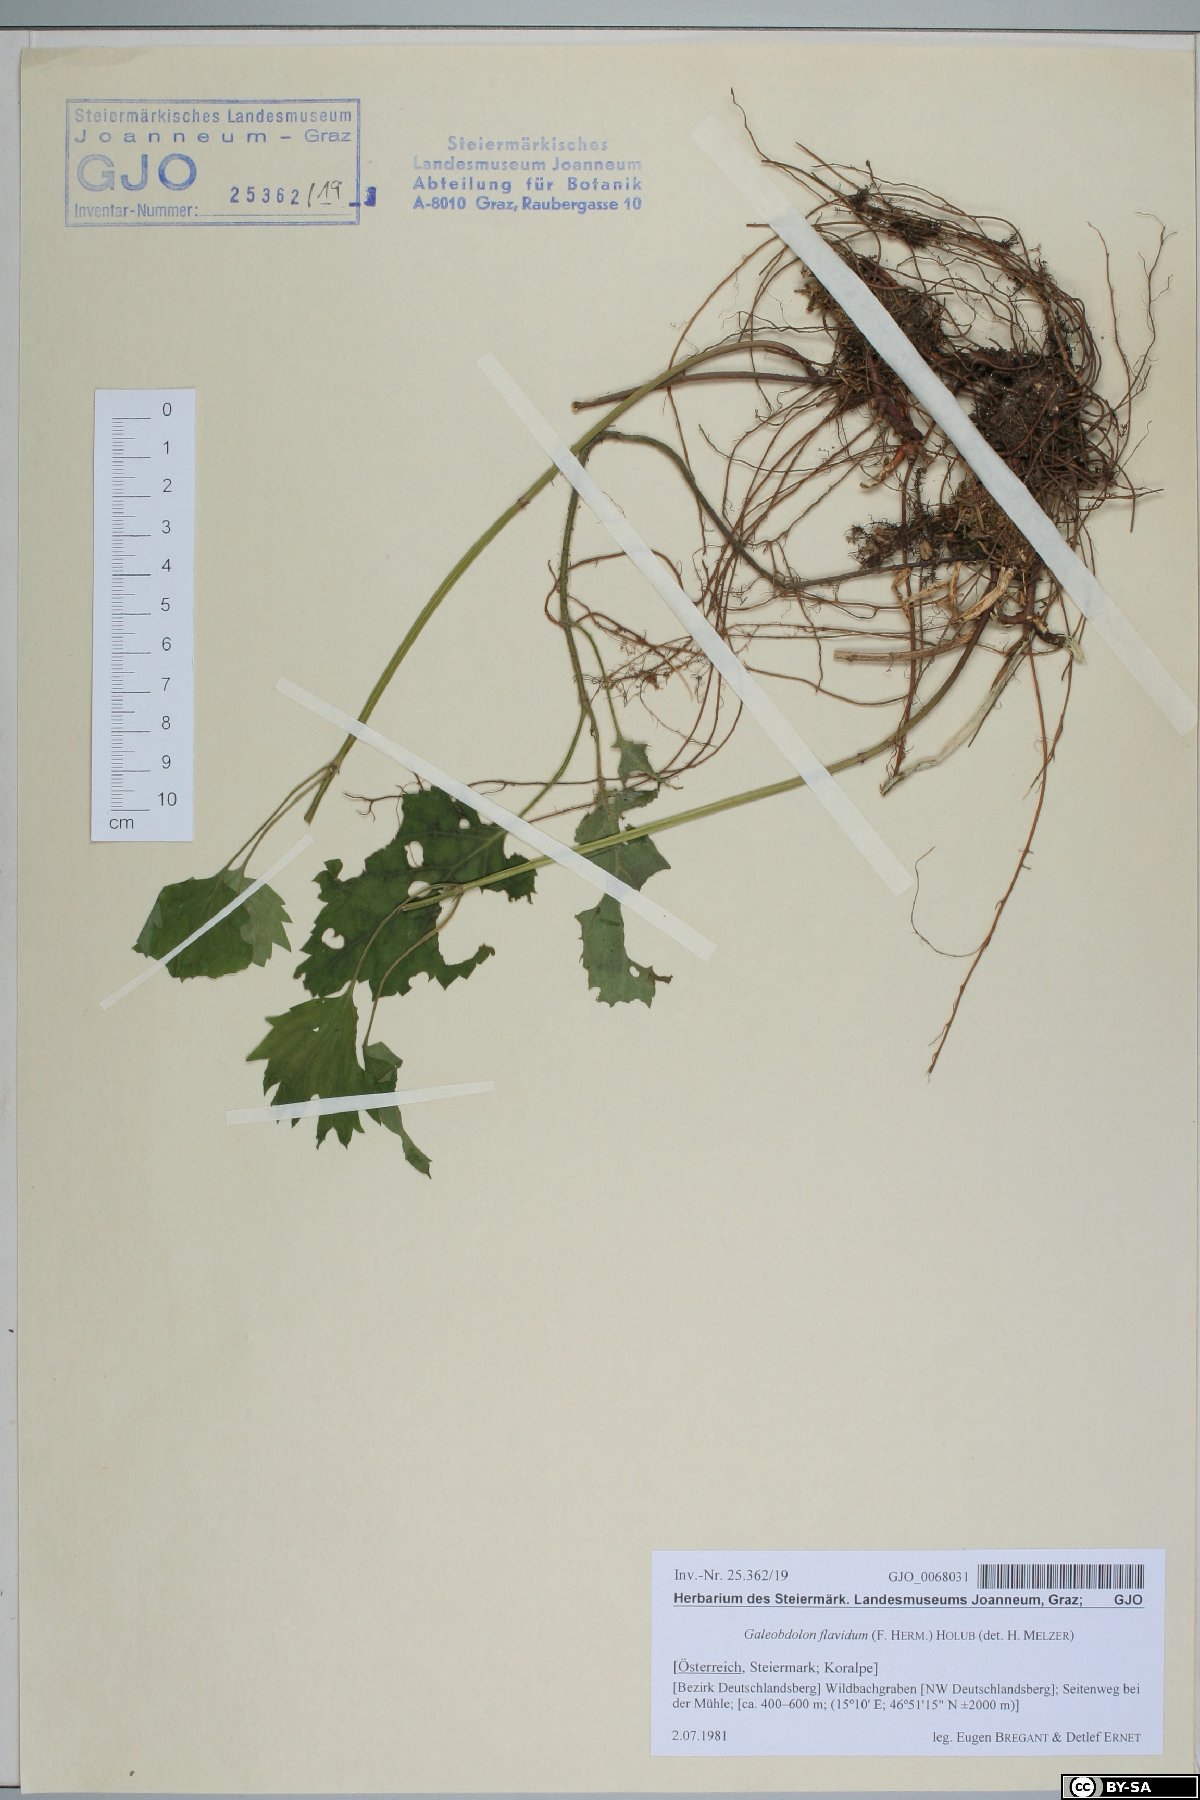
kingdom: Plantae
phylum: Tracheophyta
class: Magnoliopsida
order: Lamiales
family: Lamiaceae
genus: Lamium
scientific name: Lamium galeobdolon
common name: Yellow archangel
